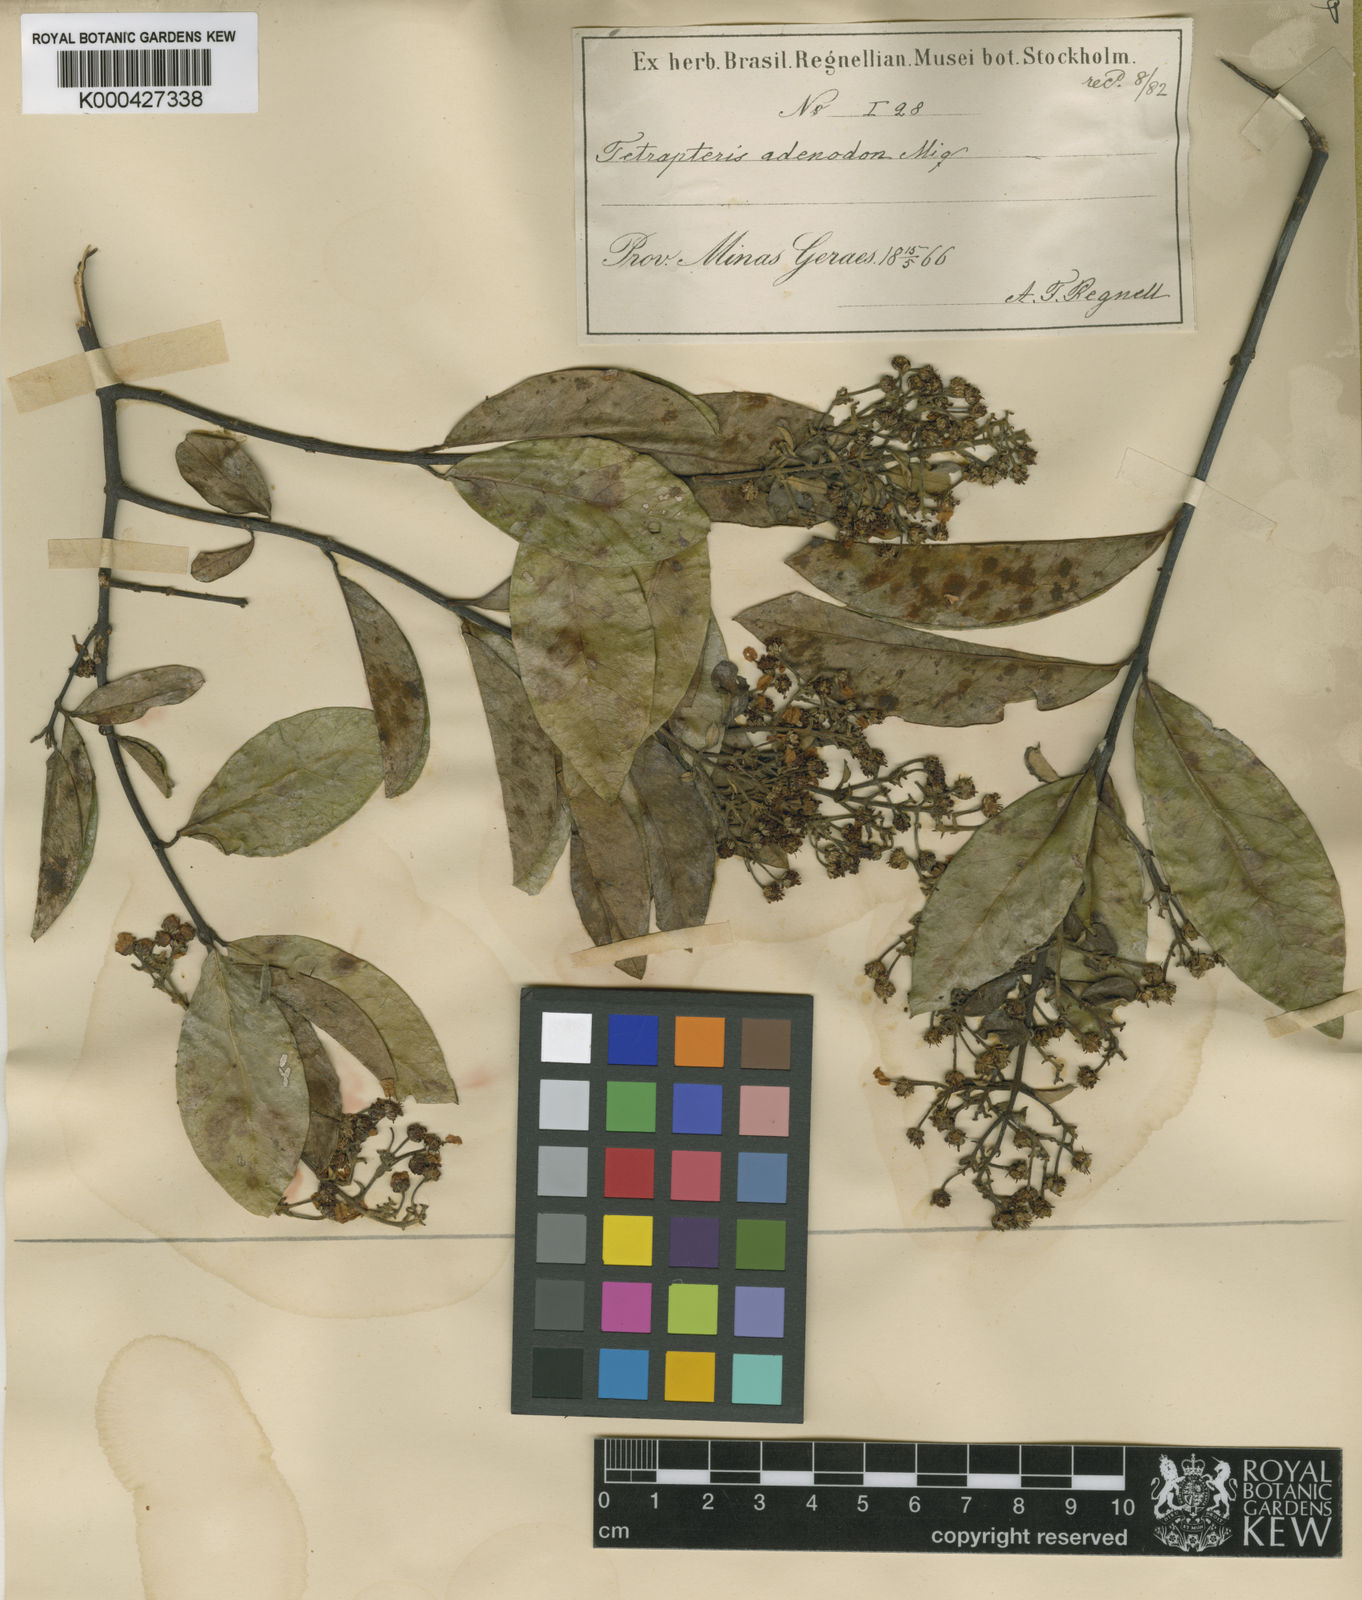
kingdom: Plantae
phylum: Tracheophyta
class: Magnoliopsida
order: Malpighiales
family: Malpighiaceae
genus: Niedenzuella
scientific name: Niedenzuella multiglandulosa
